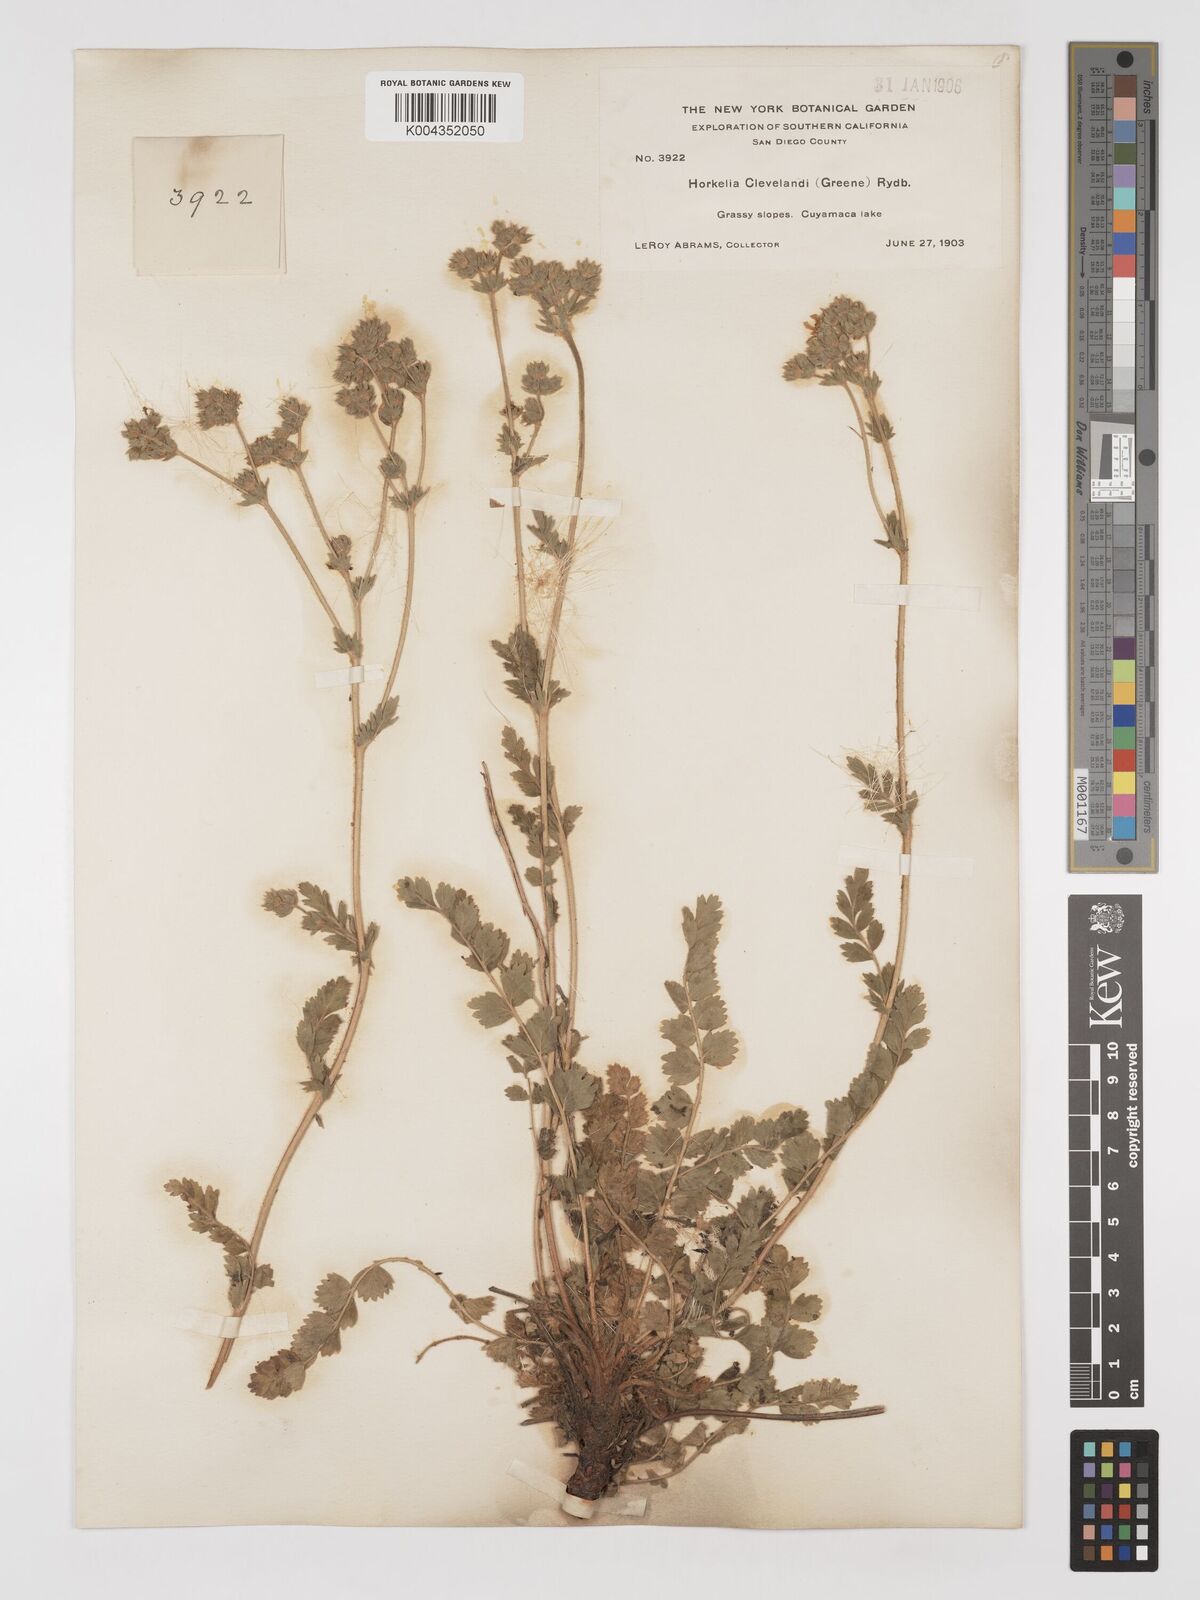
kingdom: Plantae
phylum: Tracheophyta
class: Magnoliopsida
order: Rosales
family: Rosaceae
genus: Potentilla
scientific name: Potentilla clevelandii
